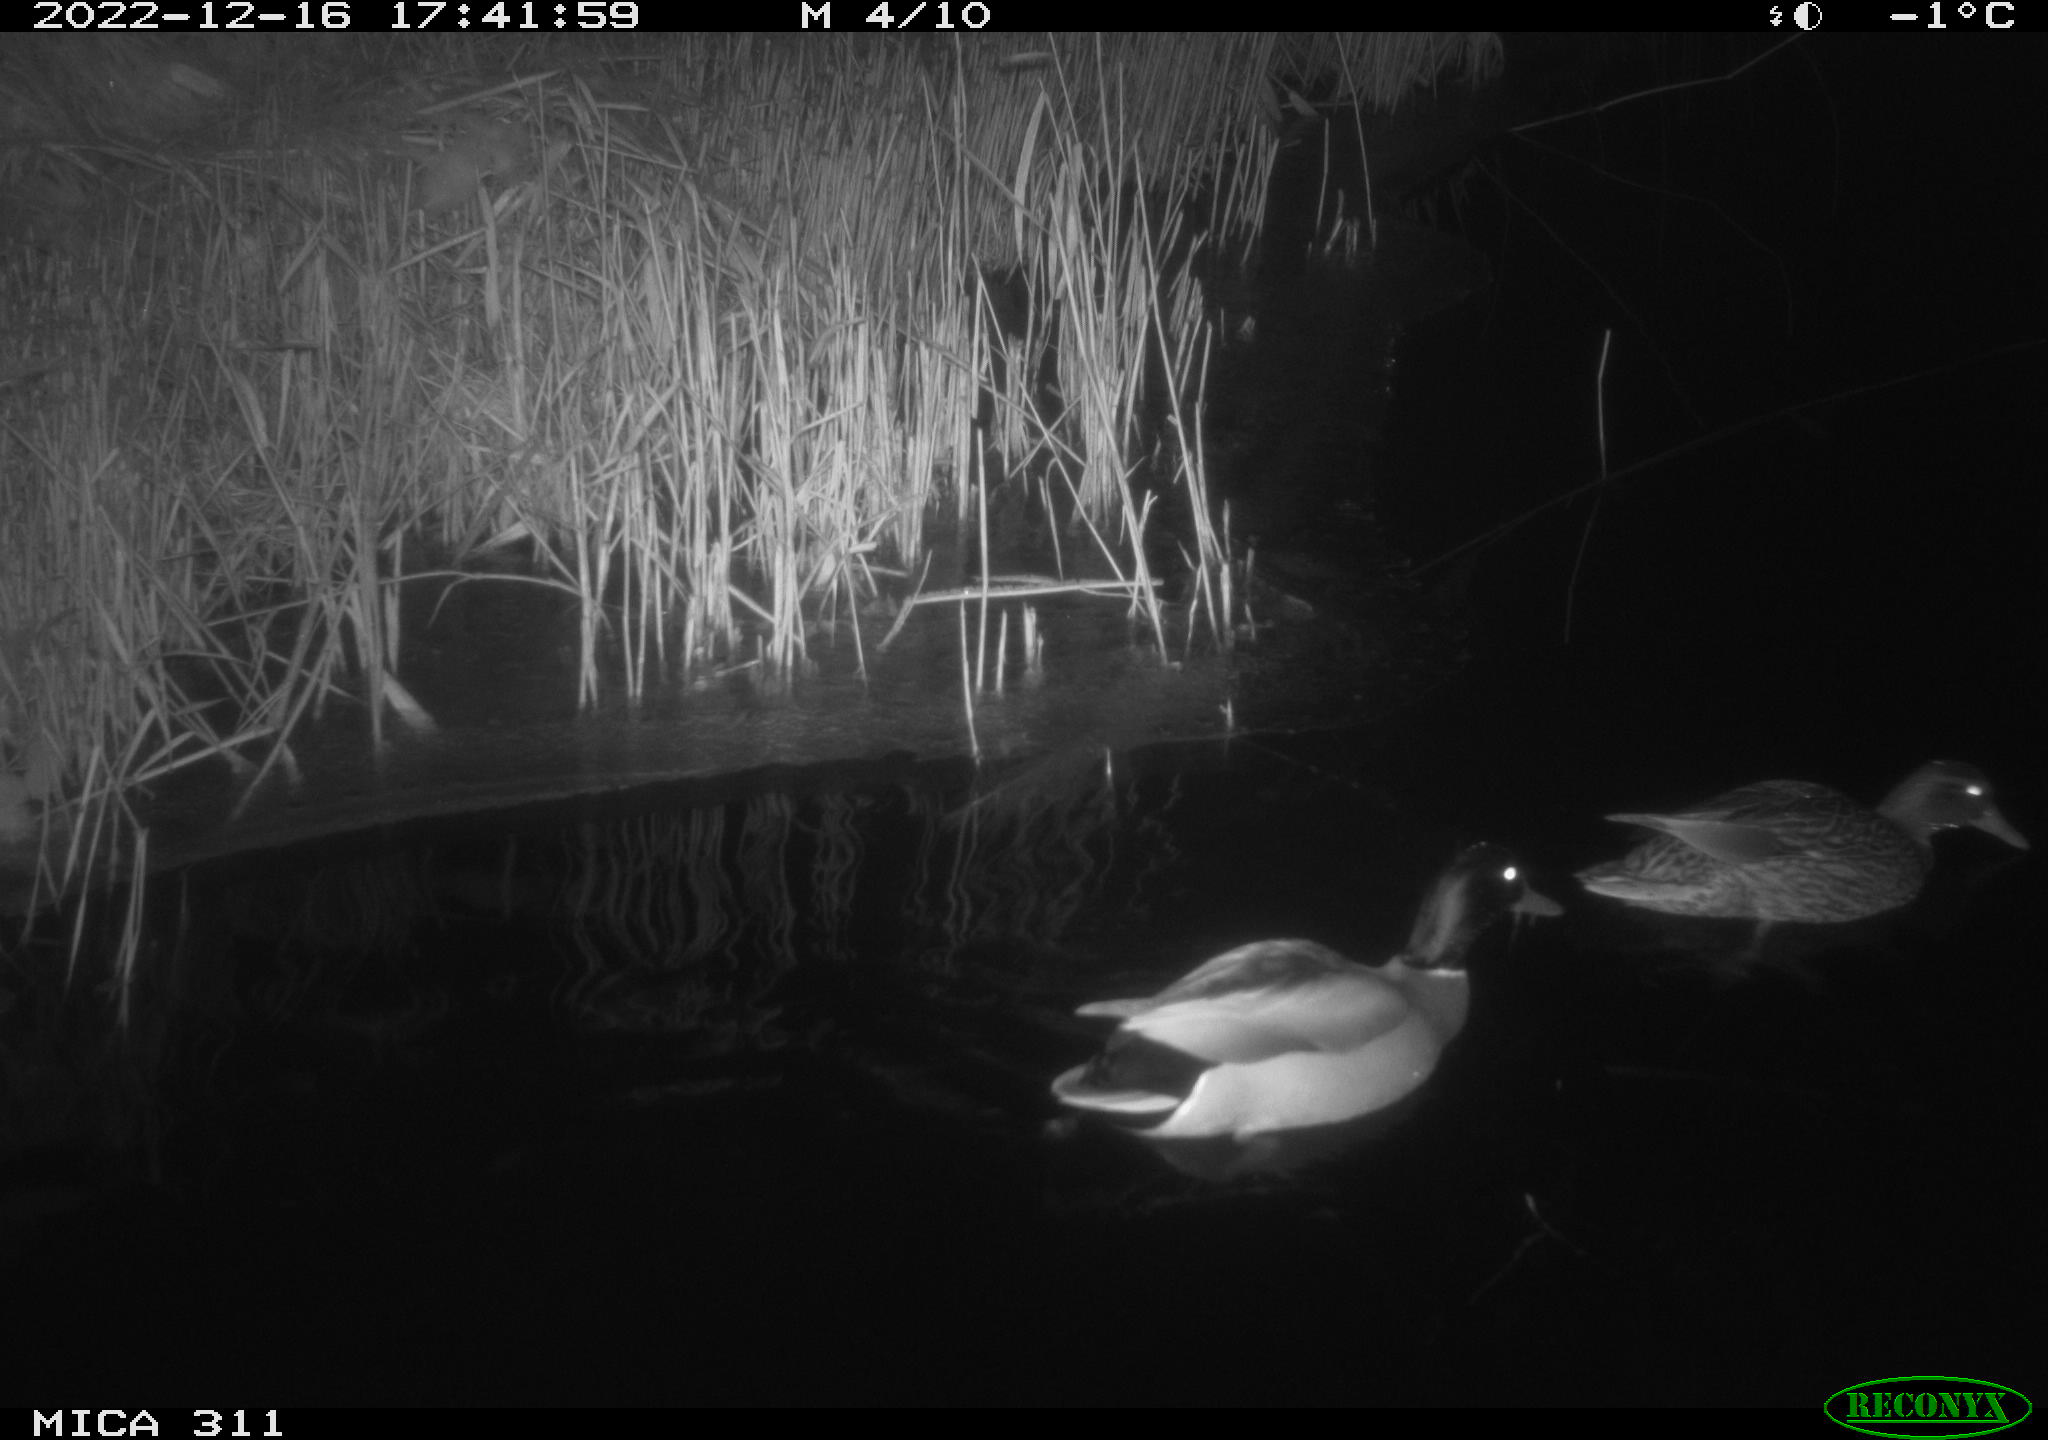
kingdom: Animalia
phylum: Chordata
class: Aves
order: Anseriformes
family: Anatidae
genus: Anas
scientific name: Anas
